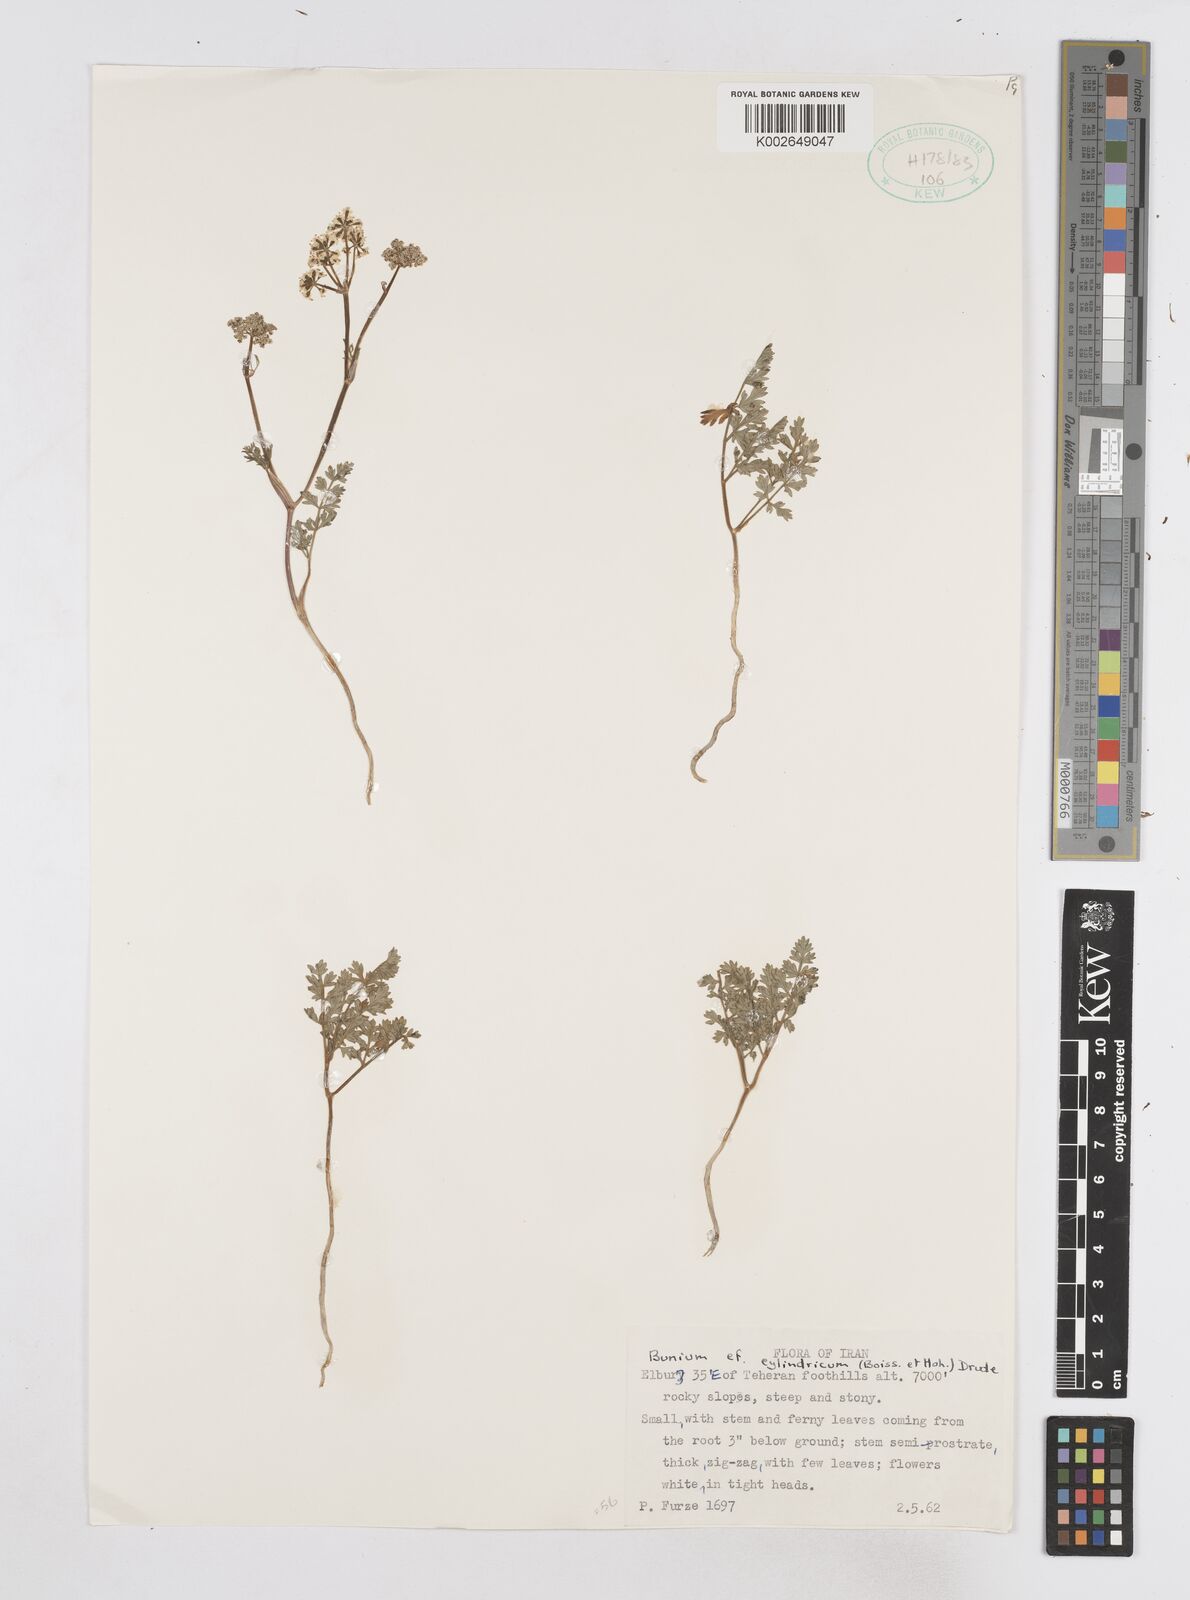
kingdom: Plantae
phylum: Tracheophyta
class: Magnoliopsida
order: Apiales
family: Apiaceae
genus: Elwendia
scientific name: Elwendia cylindrica
